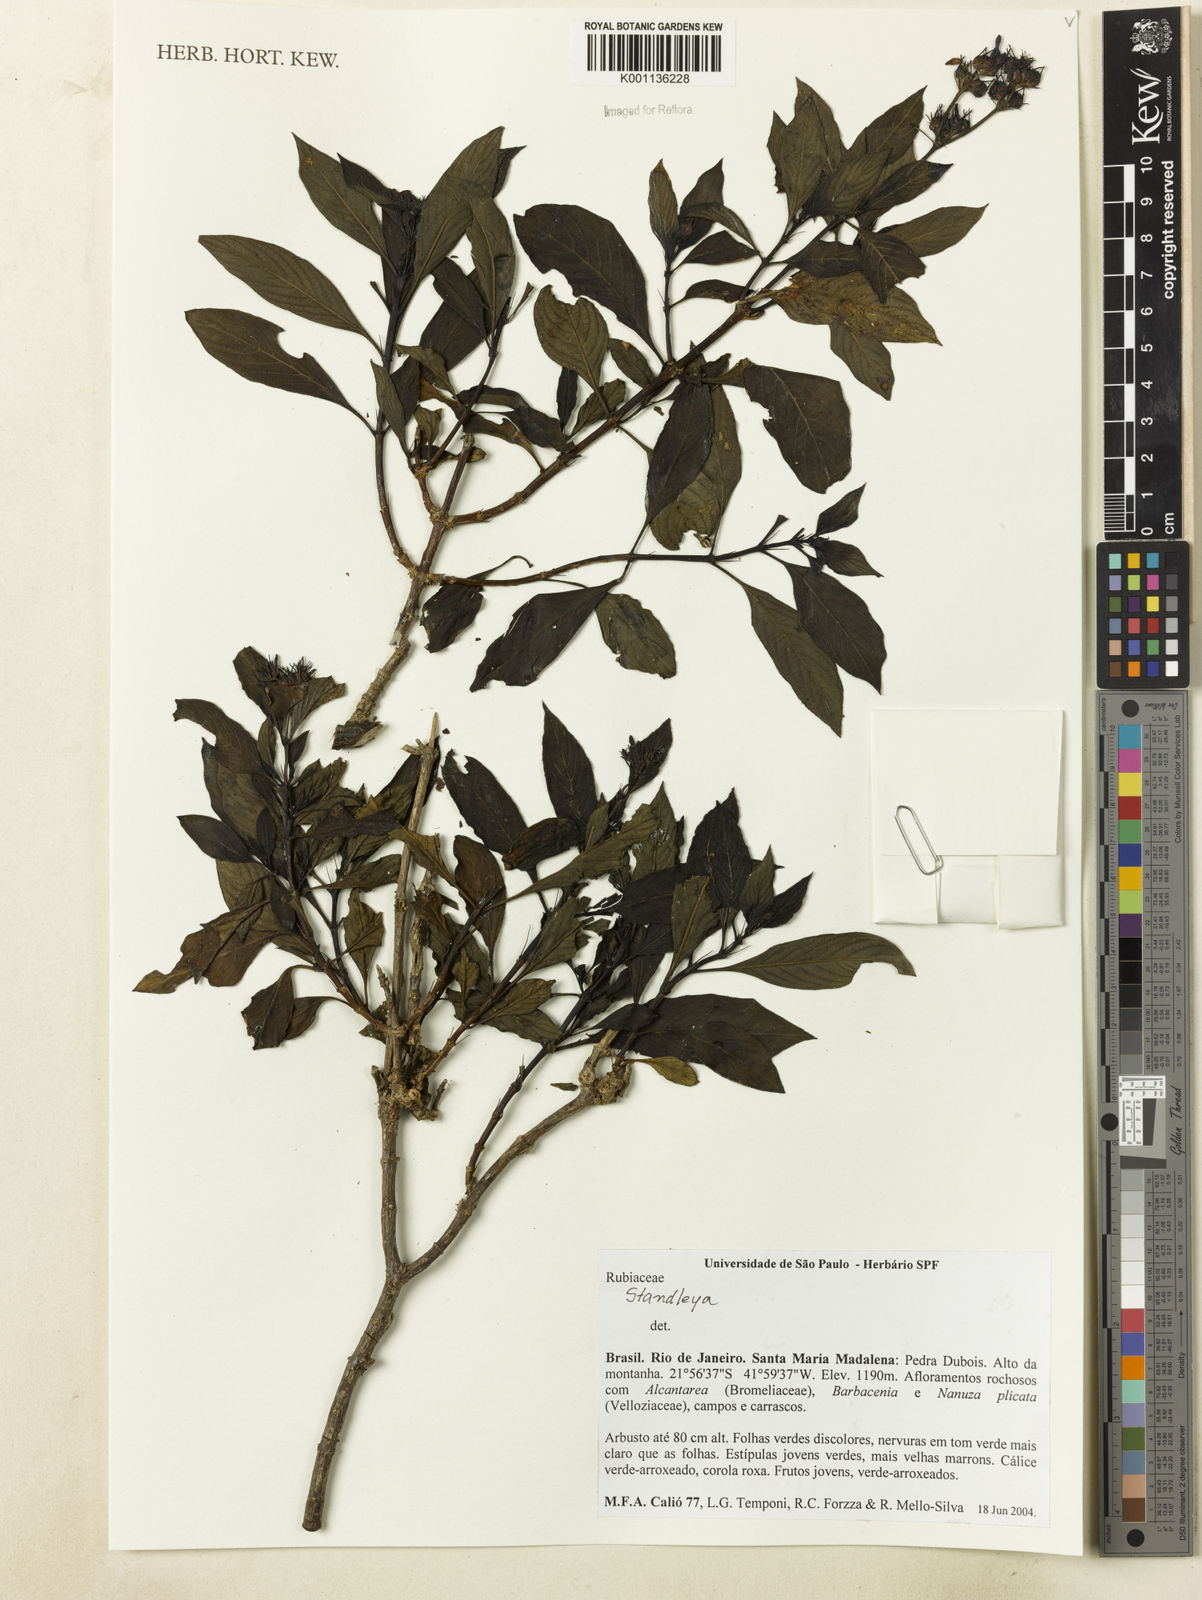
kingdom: Plantae
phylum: Tracheophyta
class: Magnoliopsida
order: Gentianales
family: Rubiaceae
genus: Standleya
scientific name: Standleya
